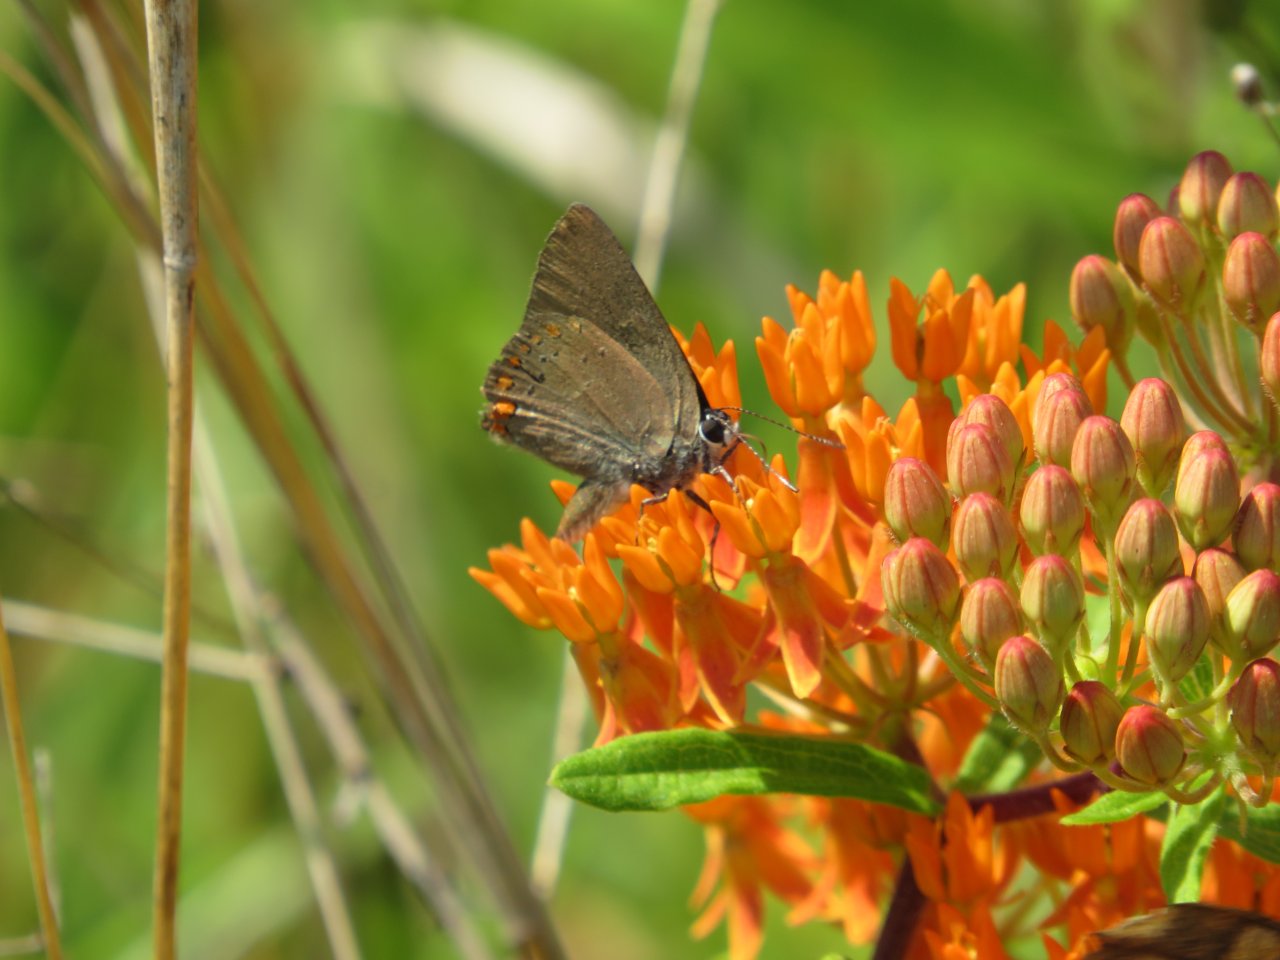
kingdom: Animalia
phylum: Arthropoda
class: Insecta
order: Lepidoptera
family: Lycaenidae
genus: Harkenclenus
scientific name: Harkenclenus titus
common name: Coral Hairstreak
